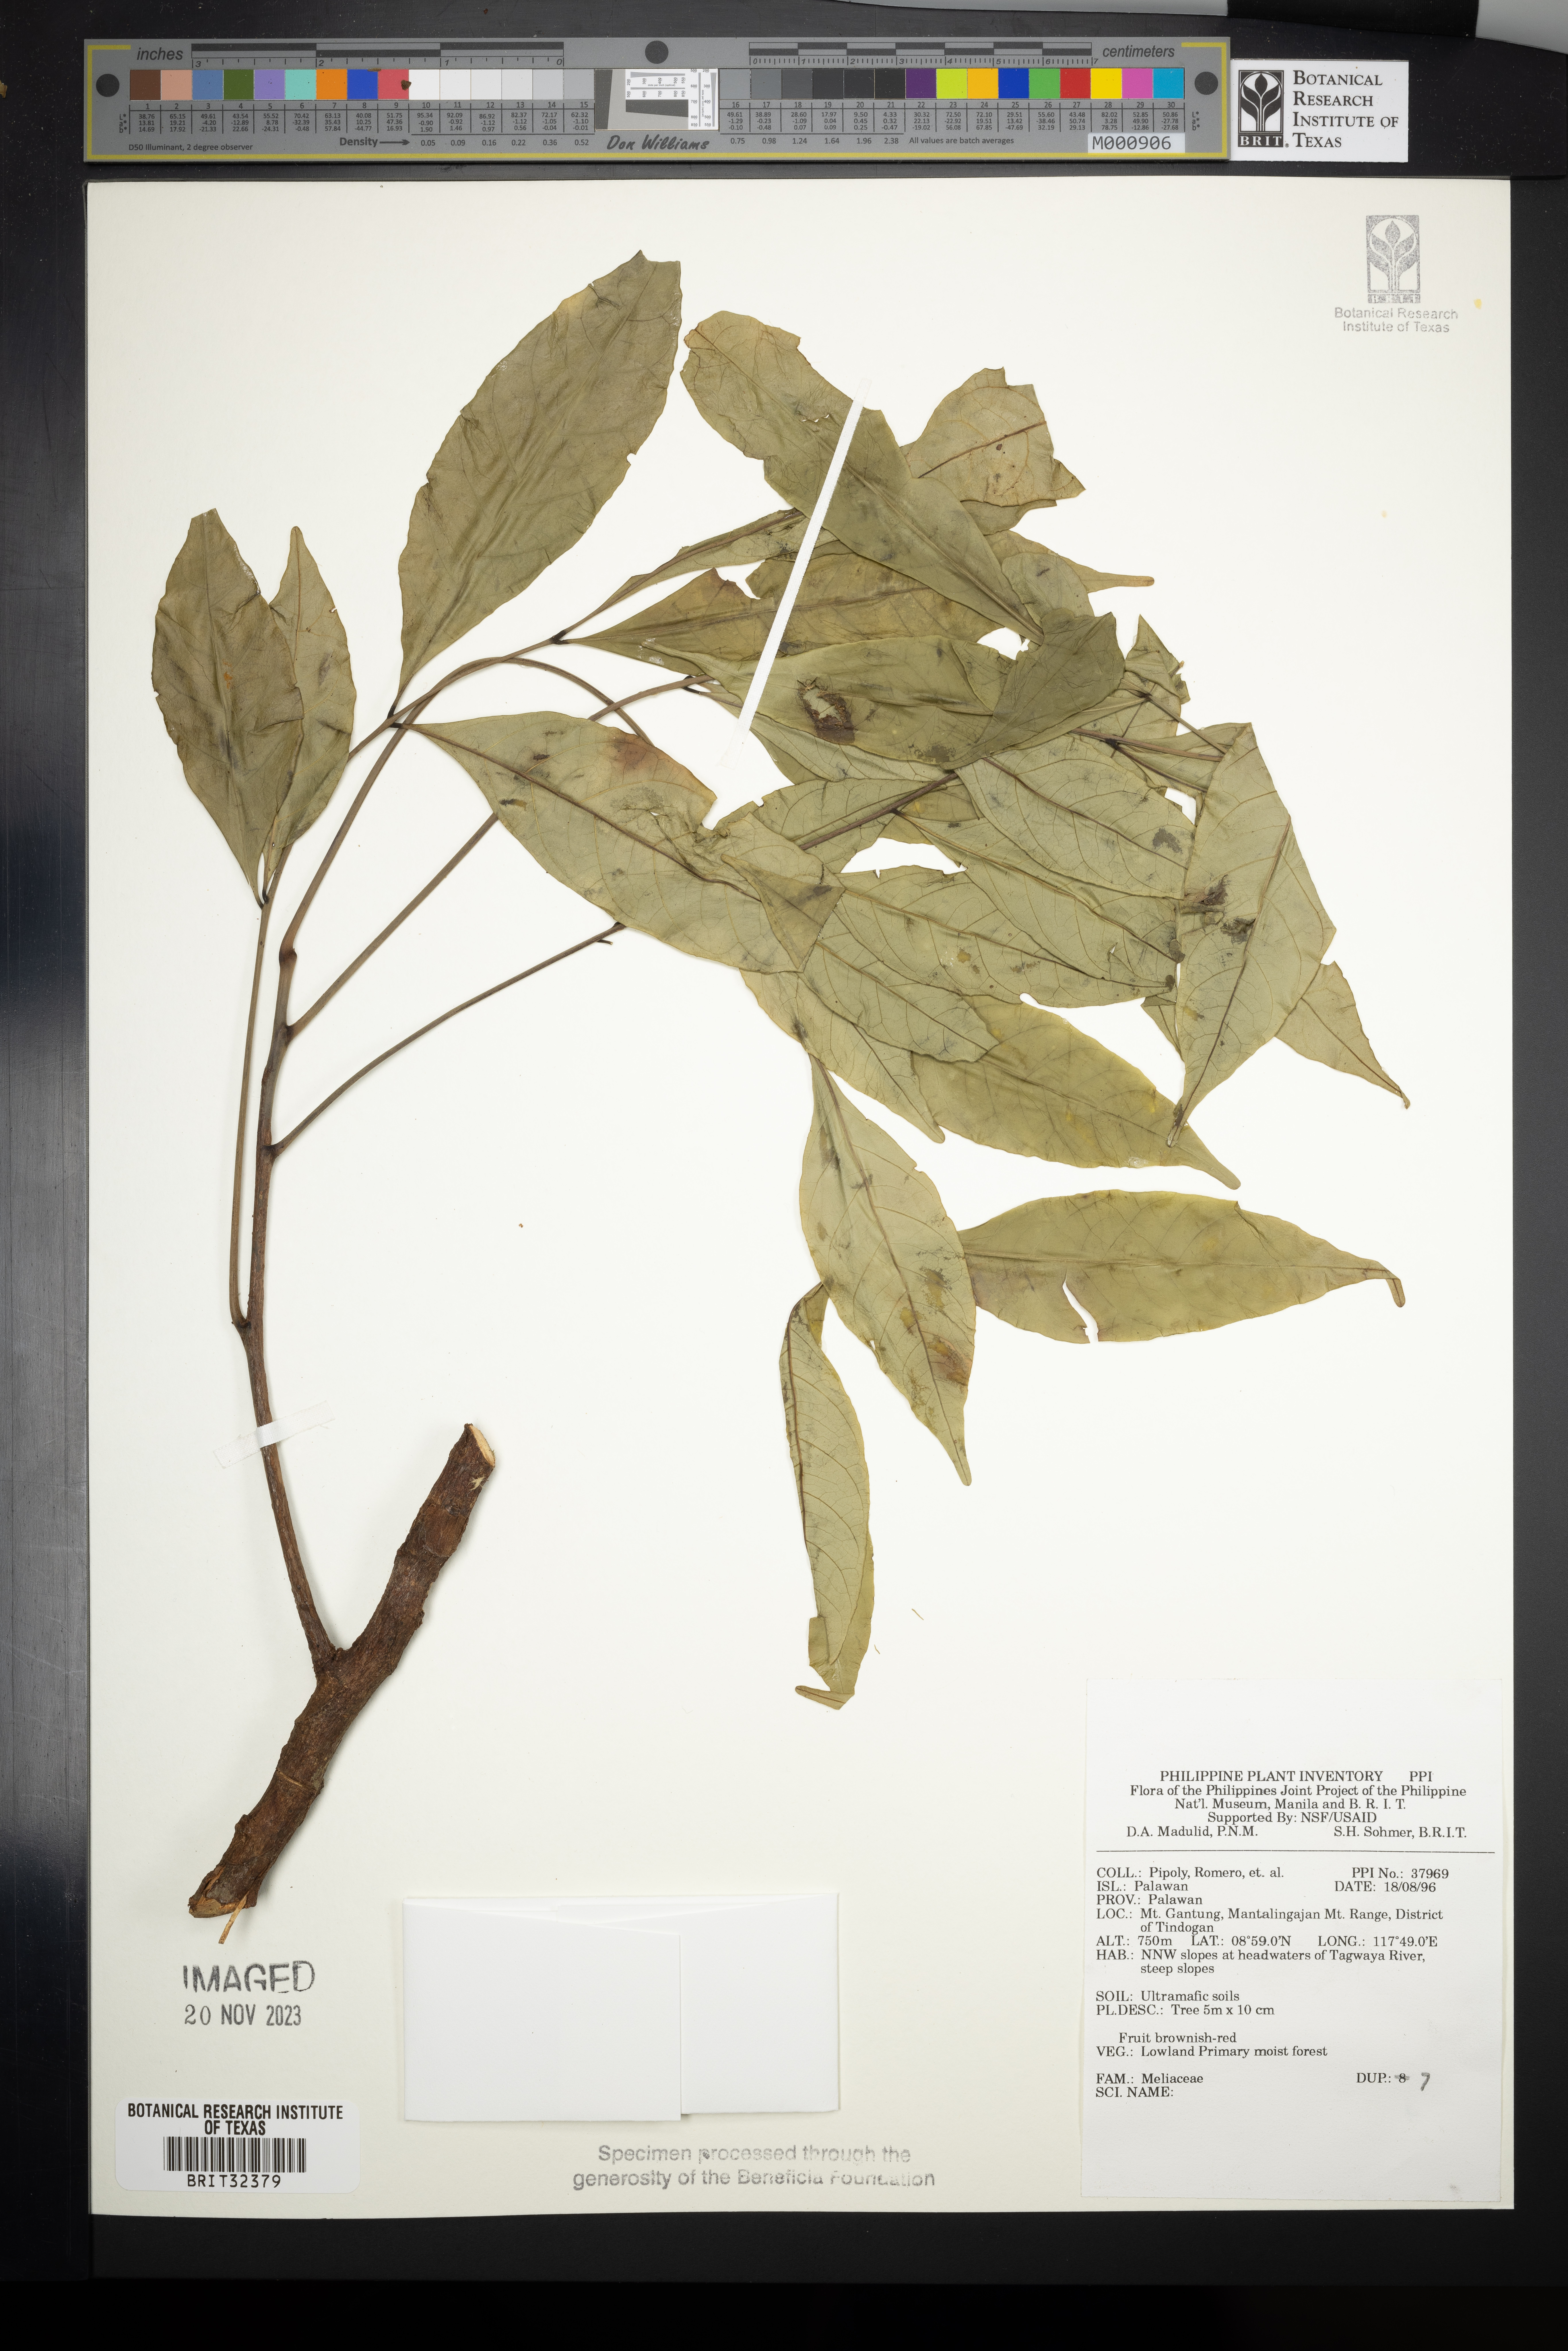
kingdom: Plantae
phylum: Tracheophyta
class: Magnoliopsida
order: Sapindales
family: Meliaceae
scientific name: Meliaceae
